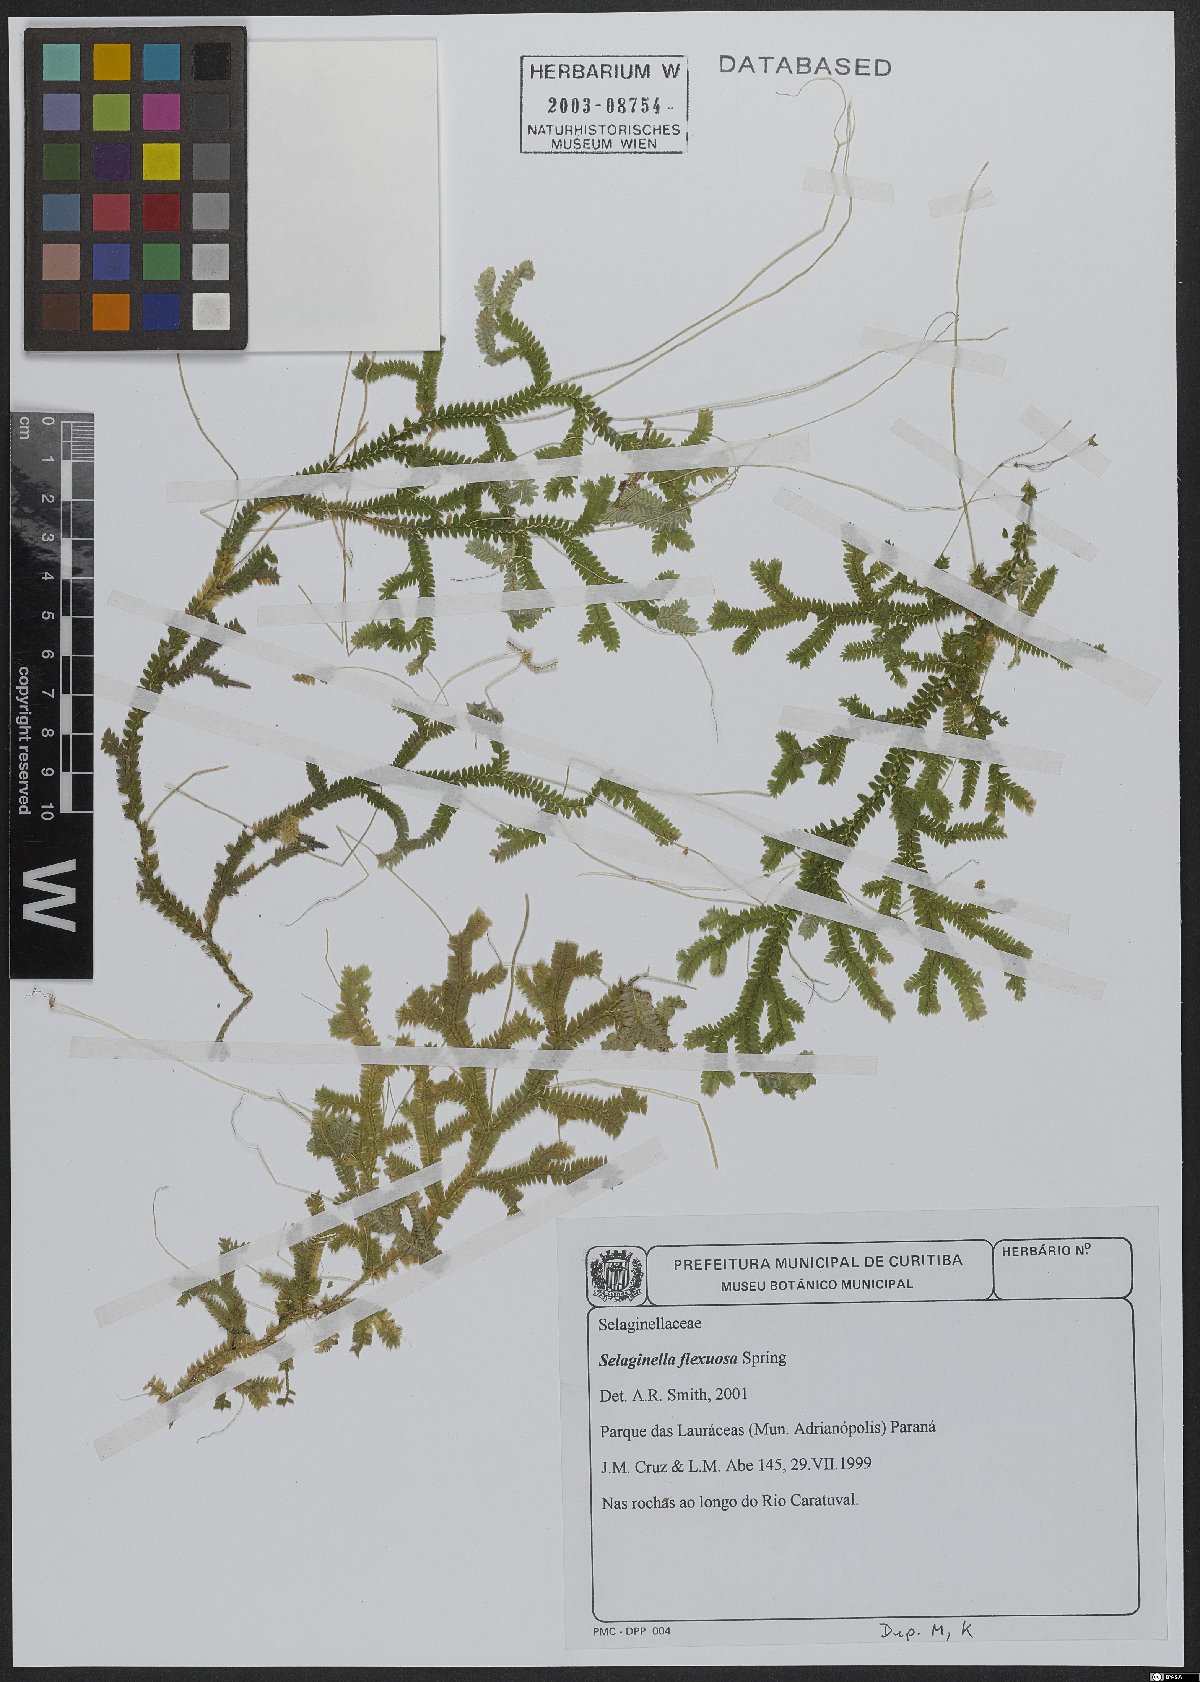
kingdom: Plantae
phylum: Tracheophyta
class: Lycopodiopsida
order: Selaginellales
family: Selaginellaceae
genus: Selaginella
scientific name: Selaginella flexuosa
